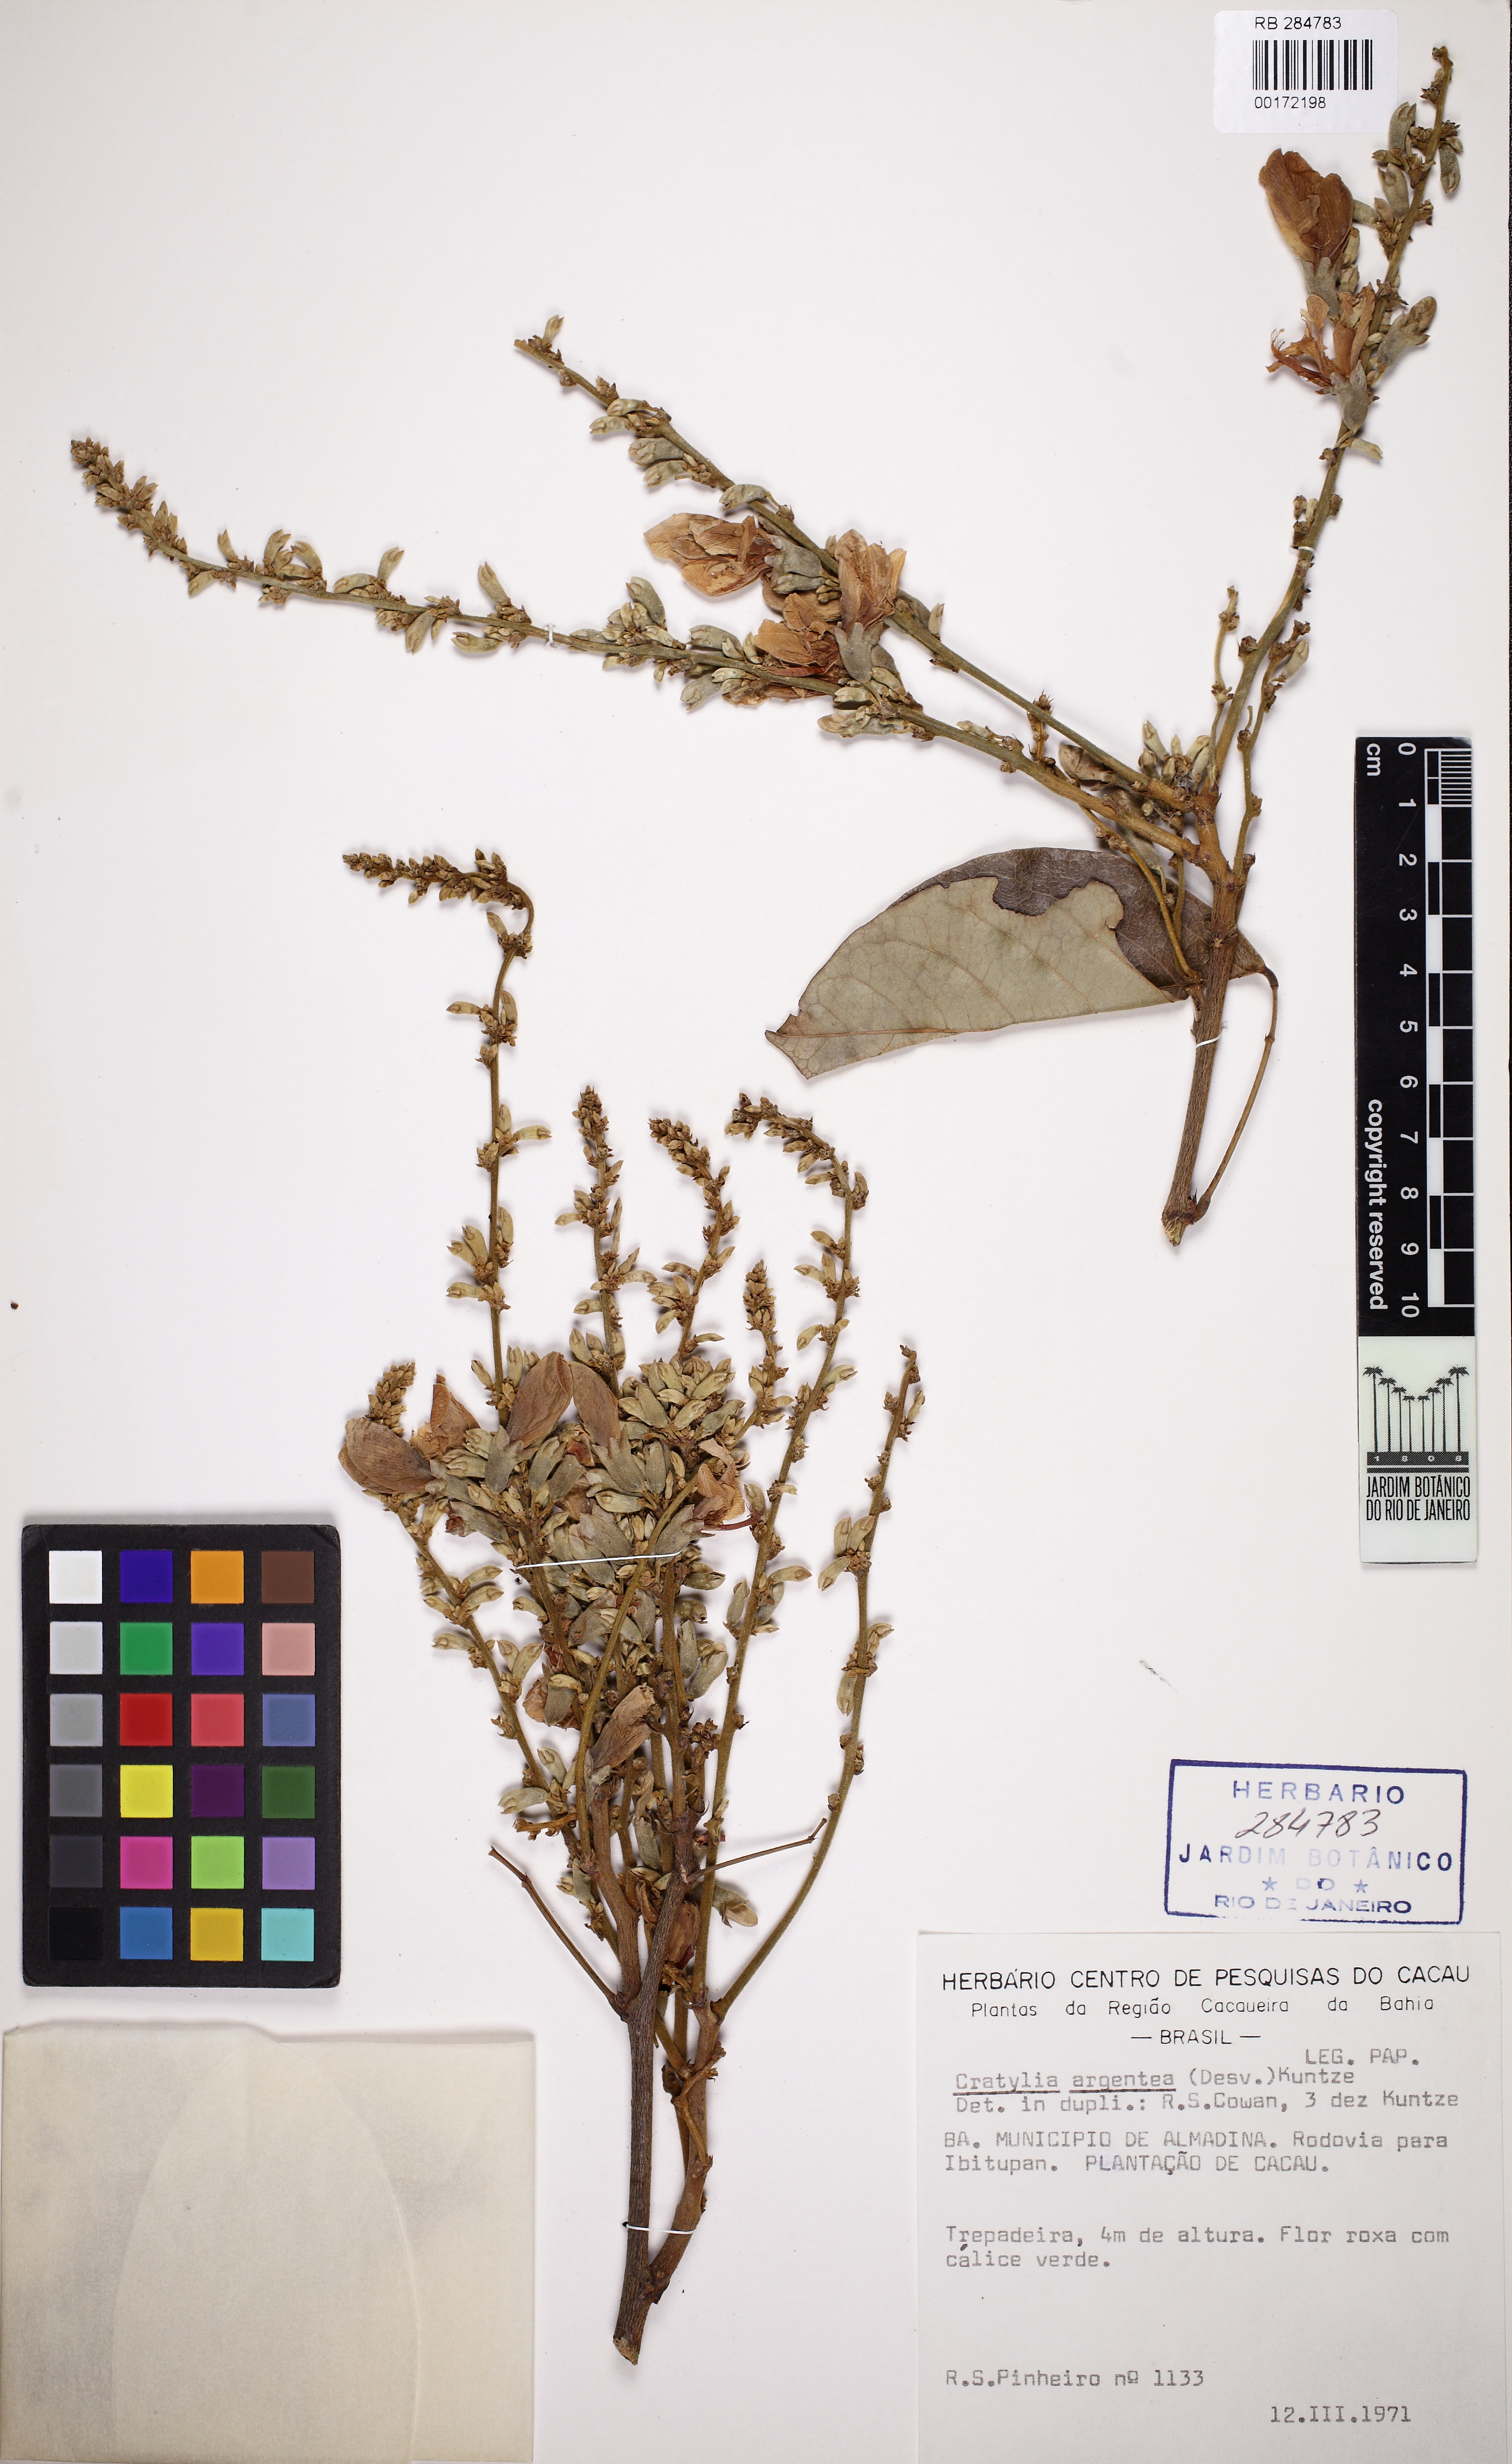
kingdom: Plantae
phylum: Tracheophyta
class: Magnoliopsida
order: Fabales
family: Fabaceae
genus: Cratylia
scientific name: Cratylia argentea
